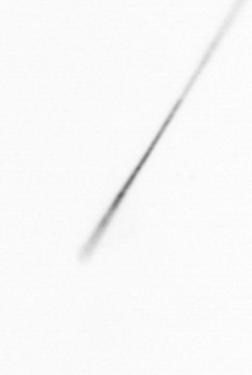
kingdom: Chromista
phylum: Ochrophyta
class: Bacillariophyceae
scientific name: Bacillariophyceae
